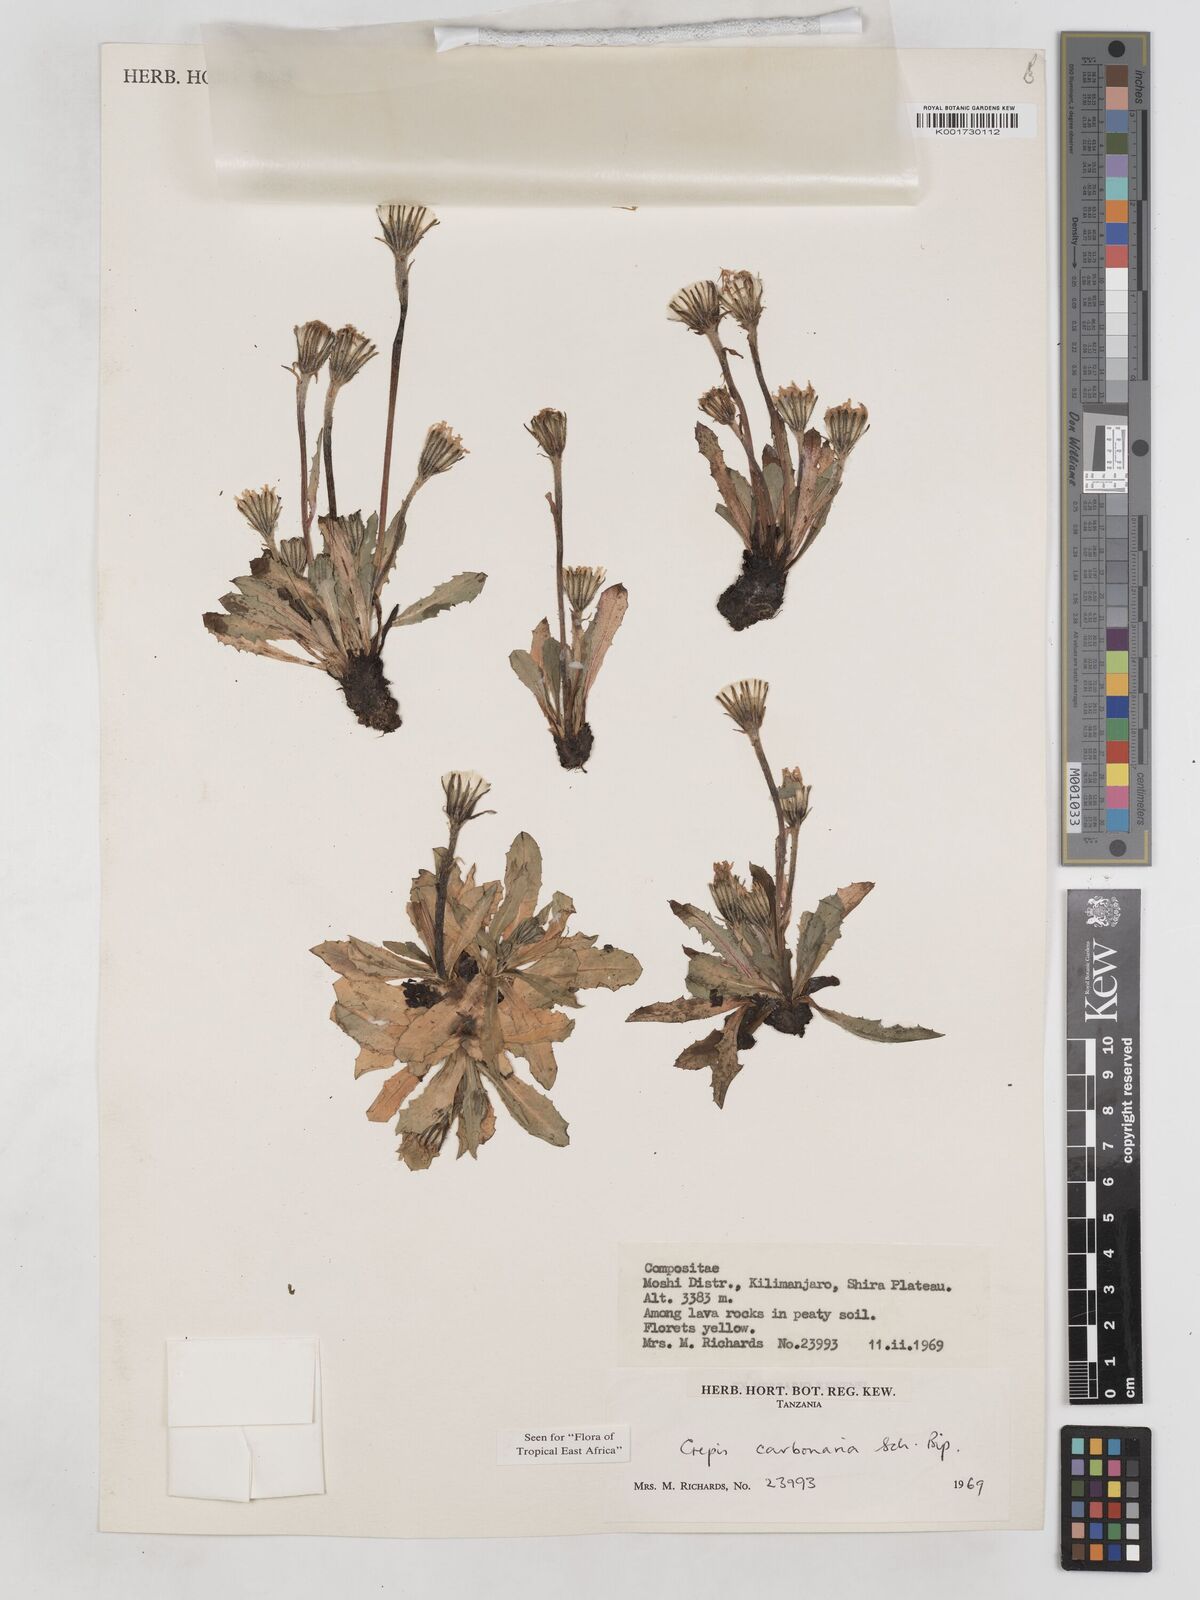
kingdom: Plantae
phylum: Tracheophyta
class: Magnoliopsida
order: Asterales
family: Asteraceae
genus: Crepis
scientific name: Crepis carbonaria
